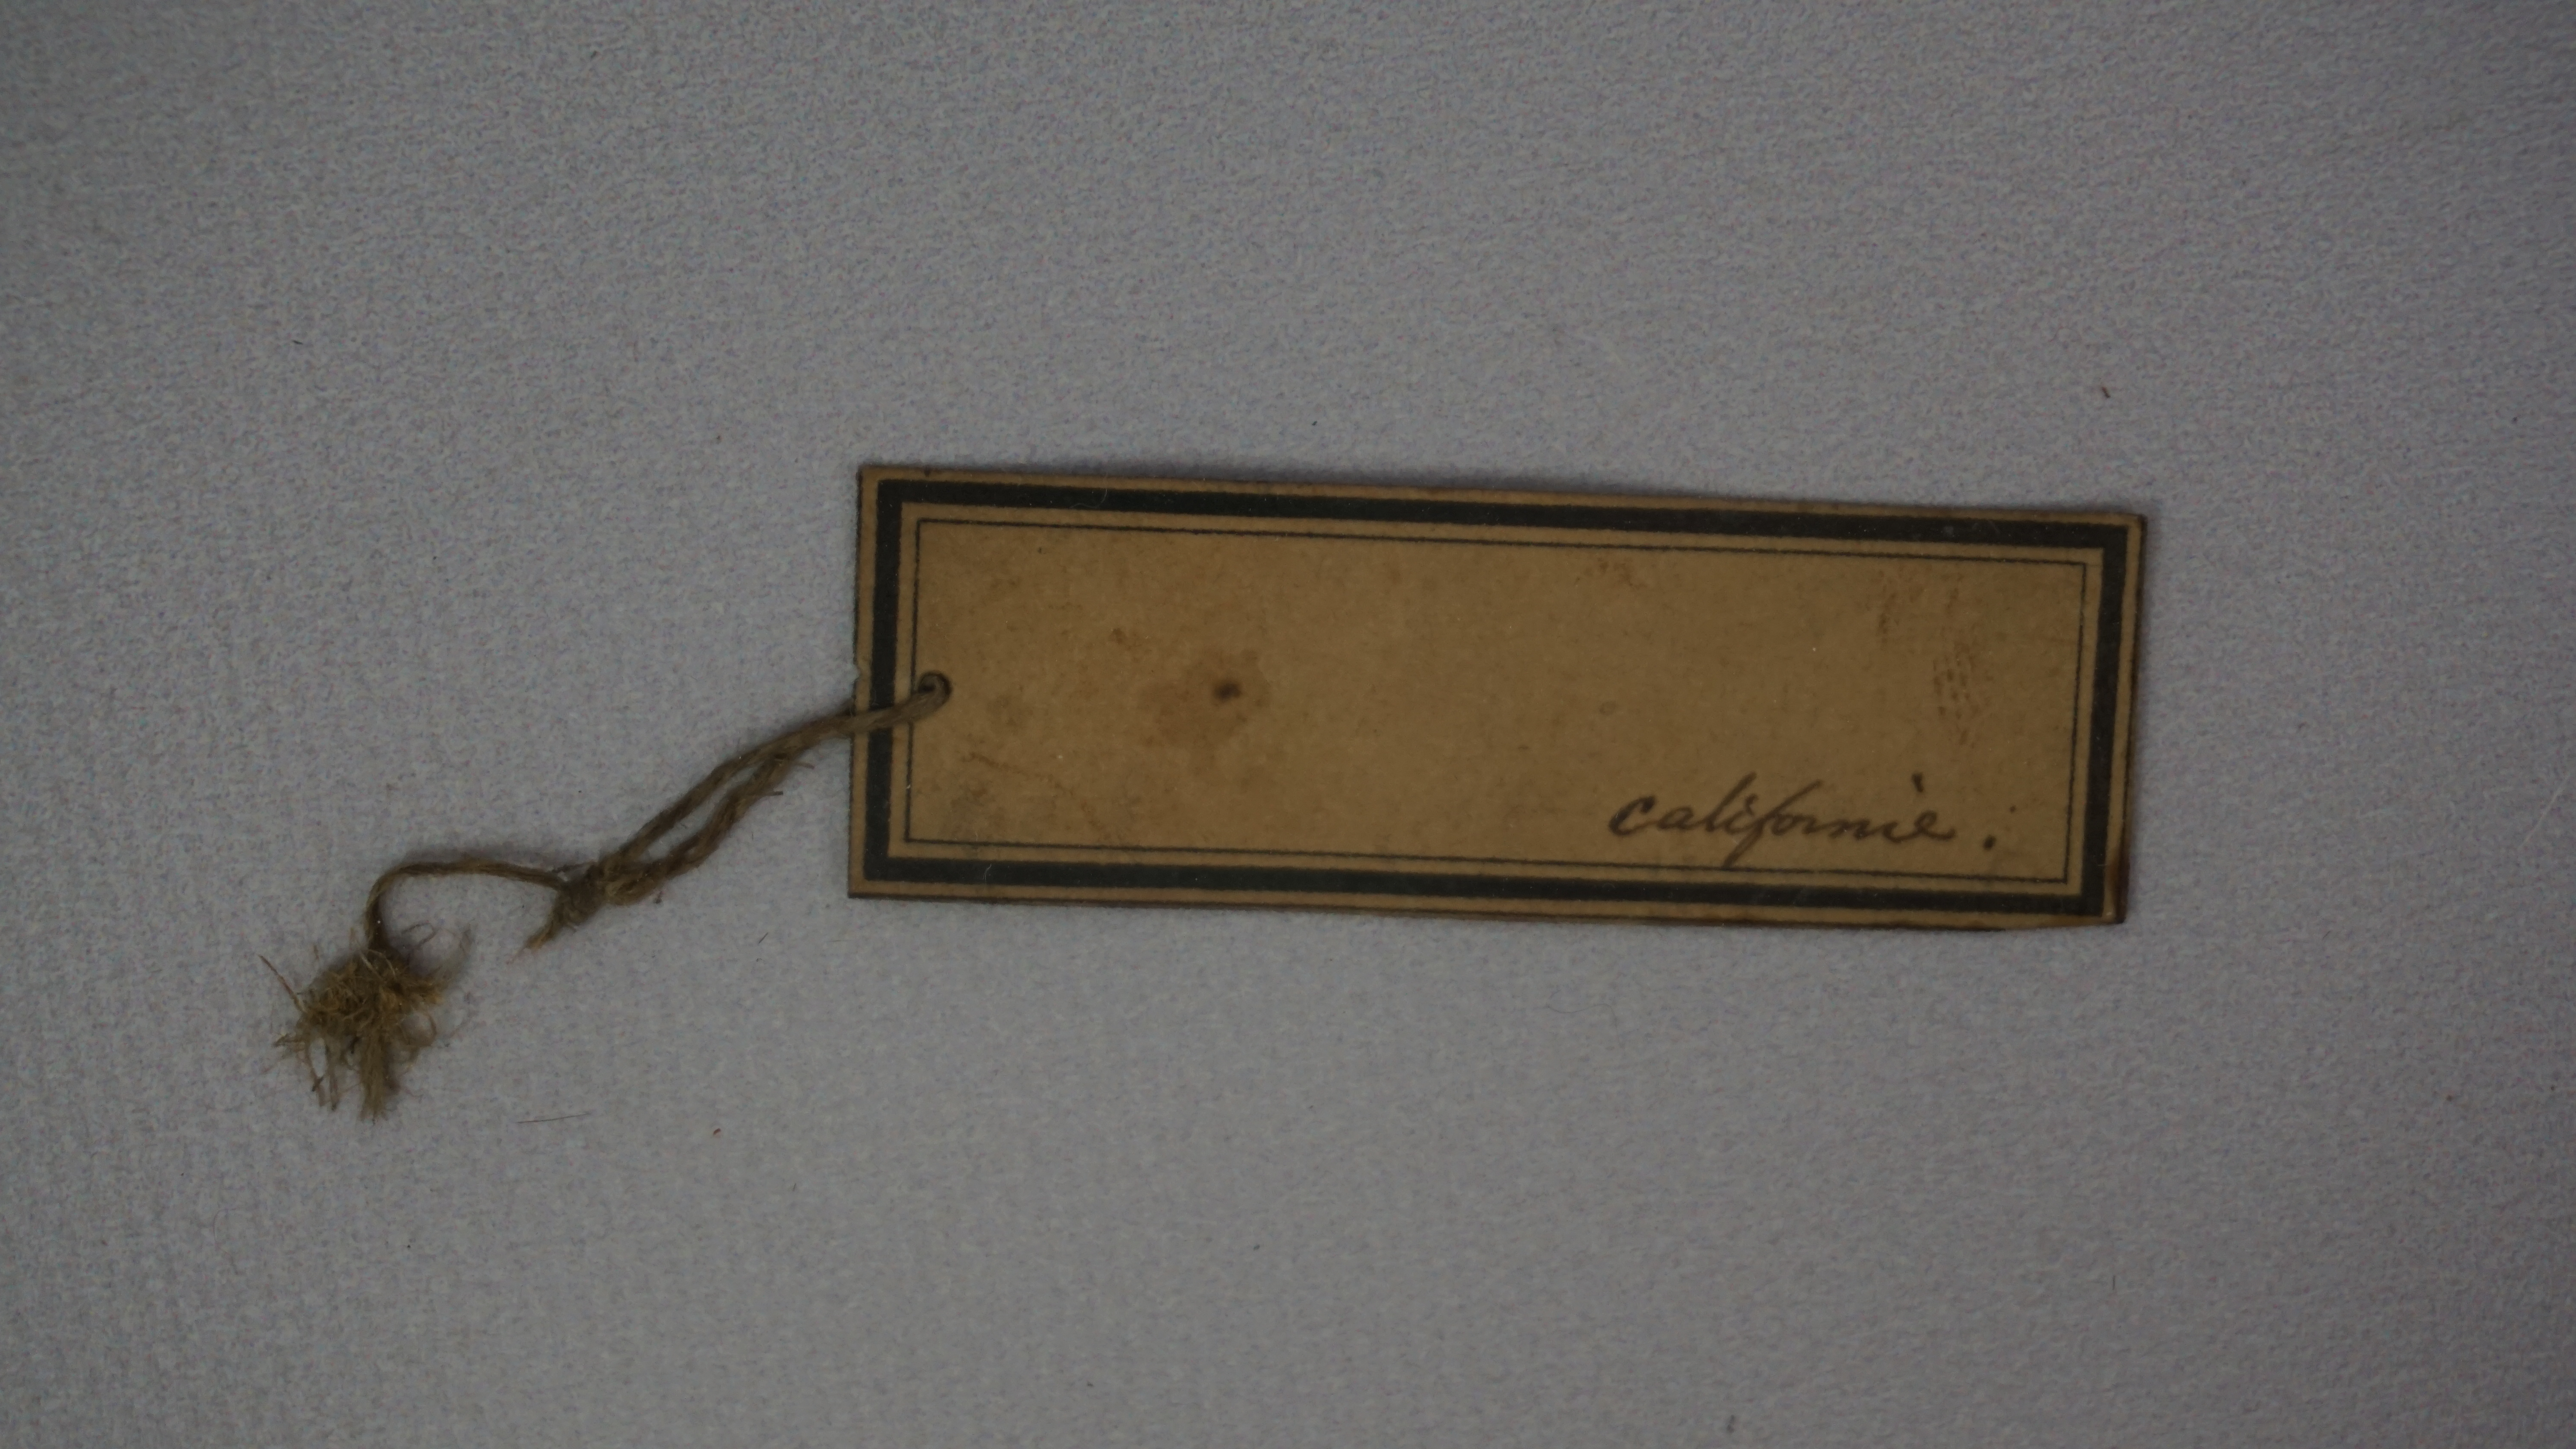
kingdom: Animalia
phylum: Chordata
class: Aves
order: Charadriiformes
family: Recurvirostridae
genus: Recurvirostra
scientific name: Recurvirostra americana
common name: American avocet
